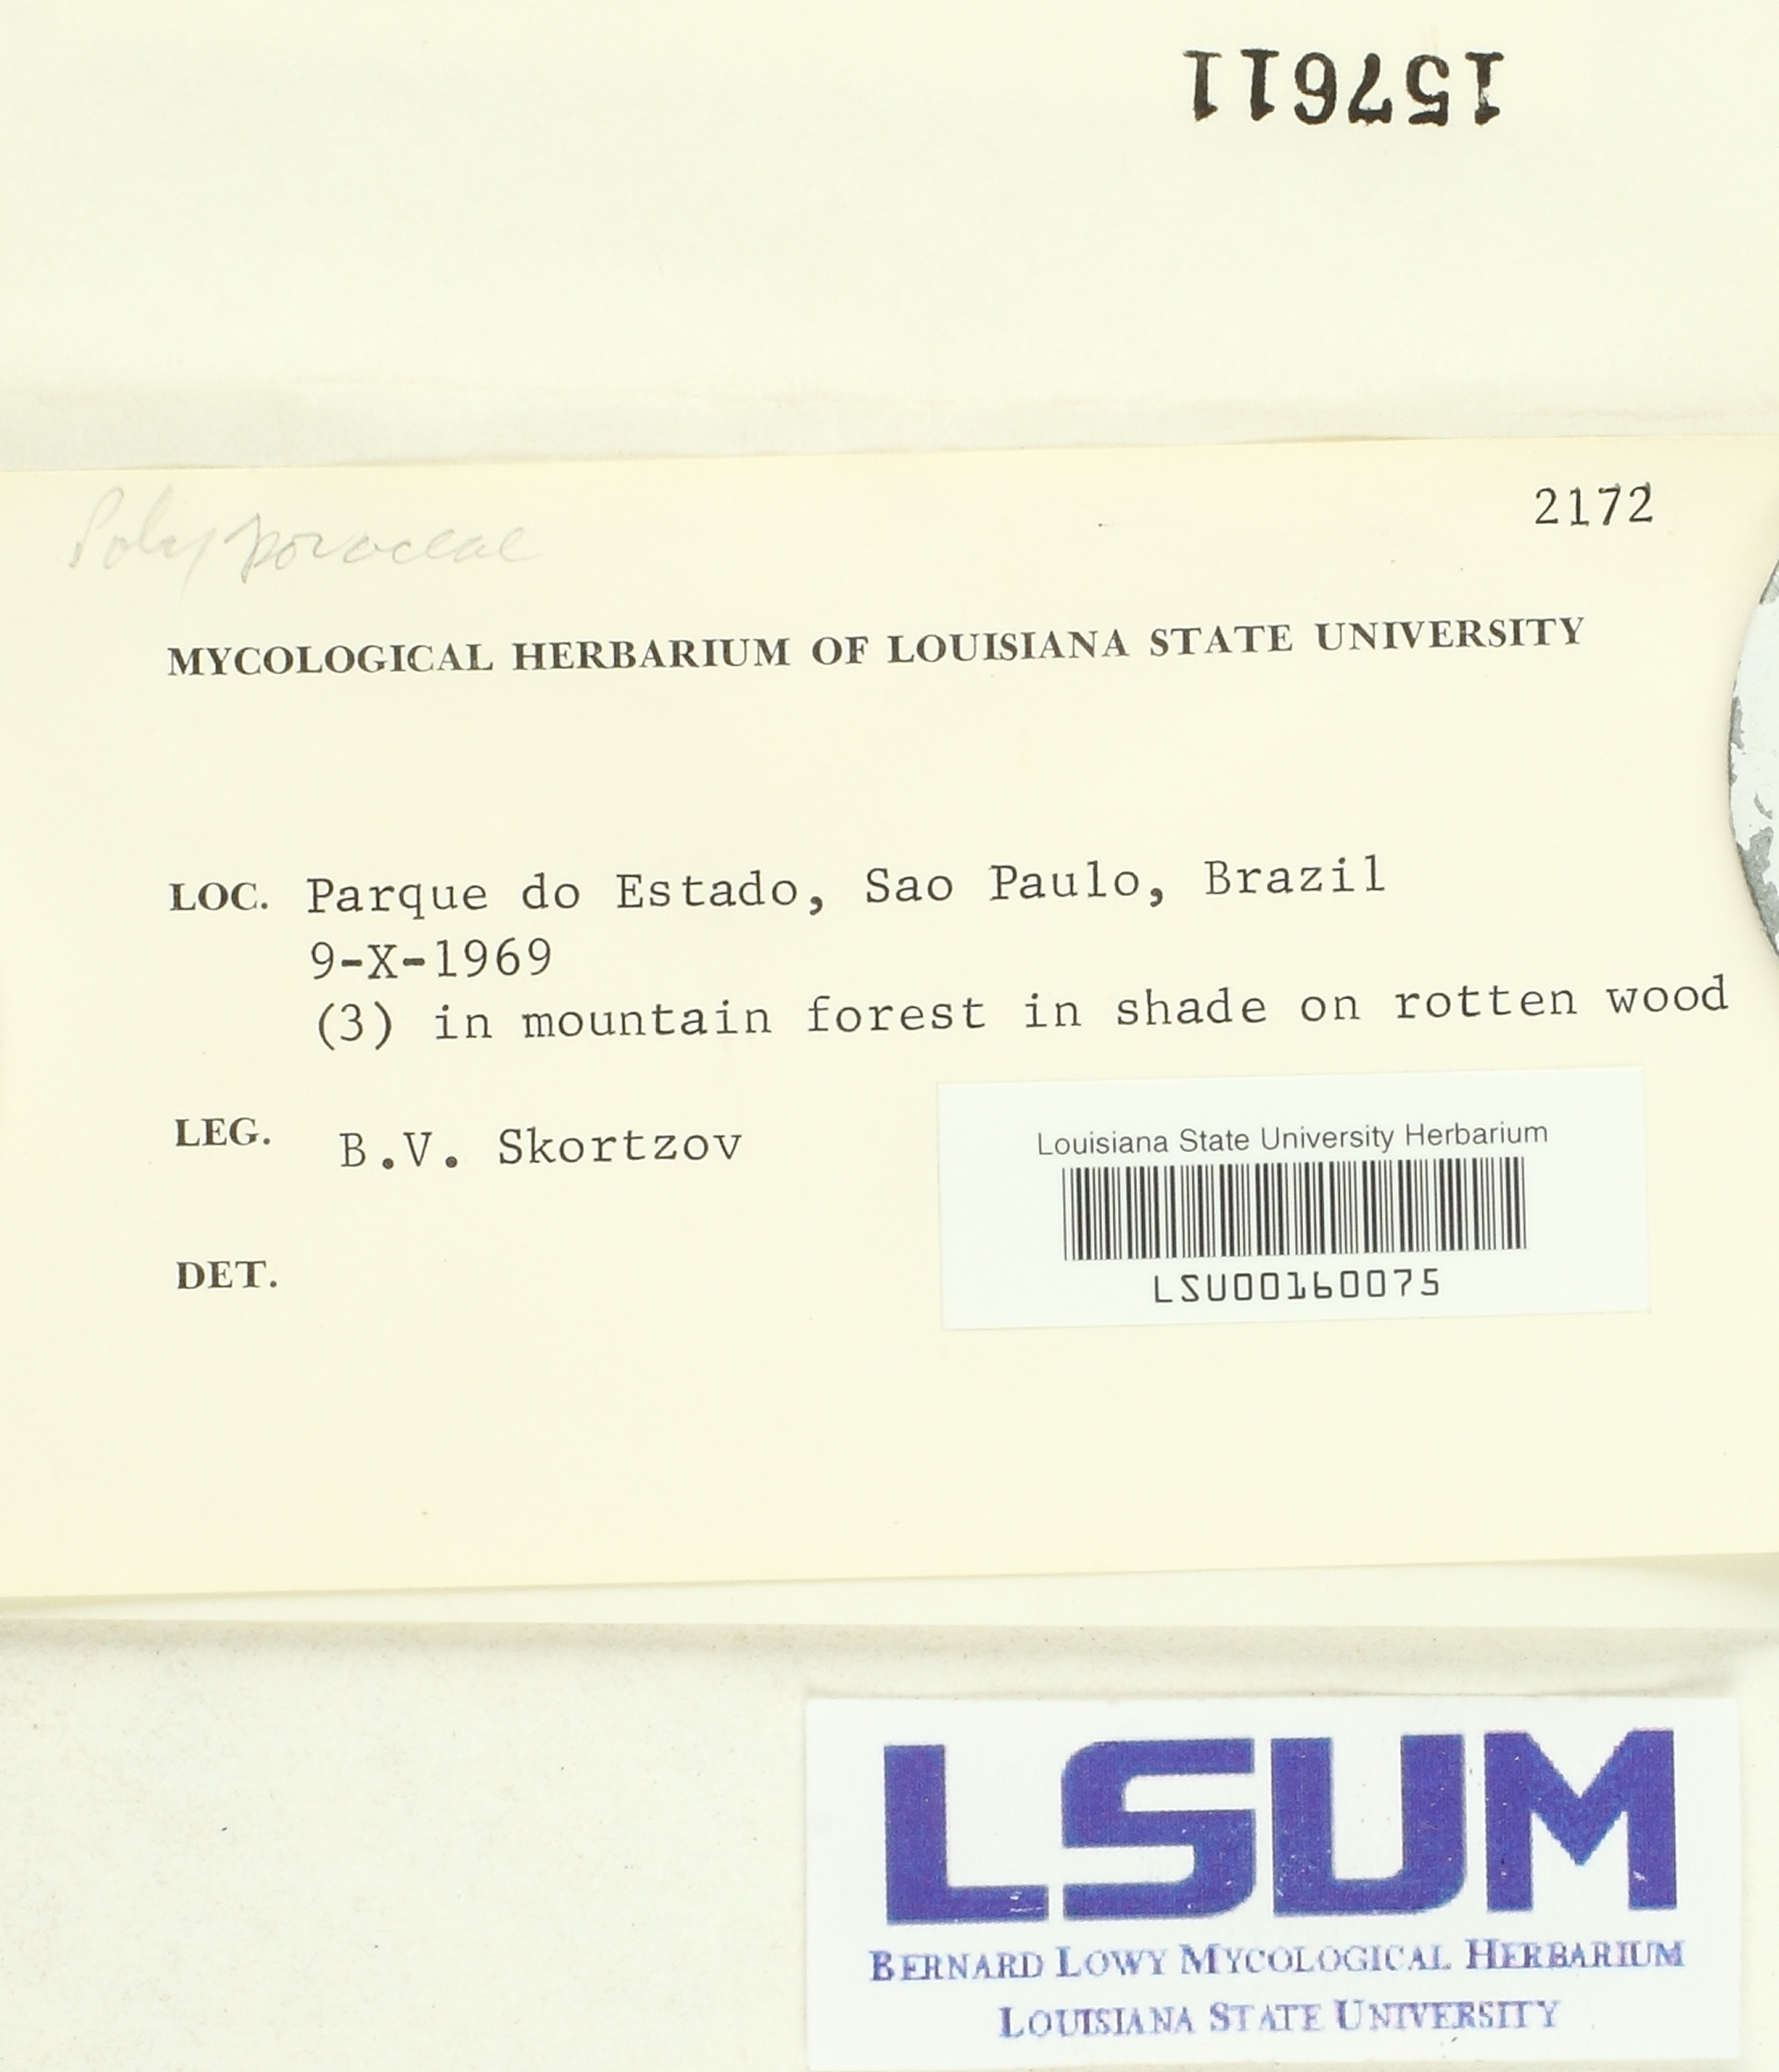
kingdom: Fungi
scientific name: Fungi
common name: Fungi
